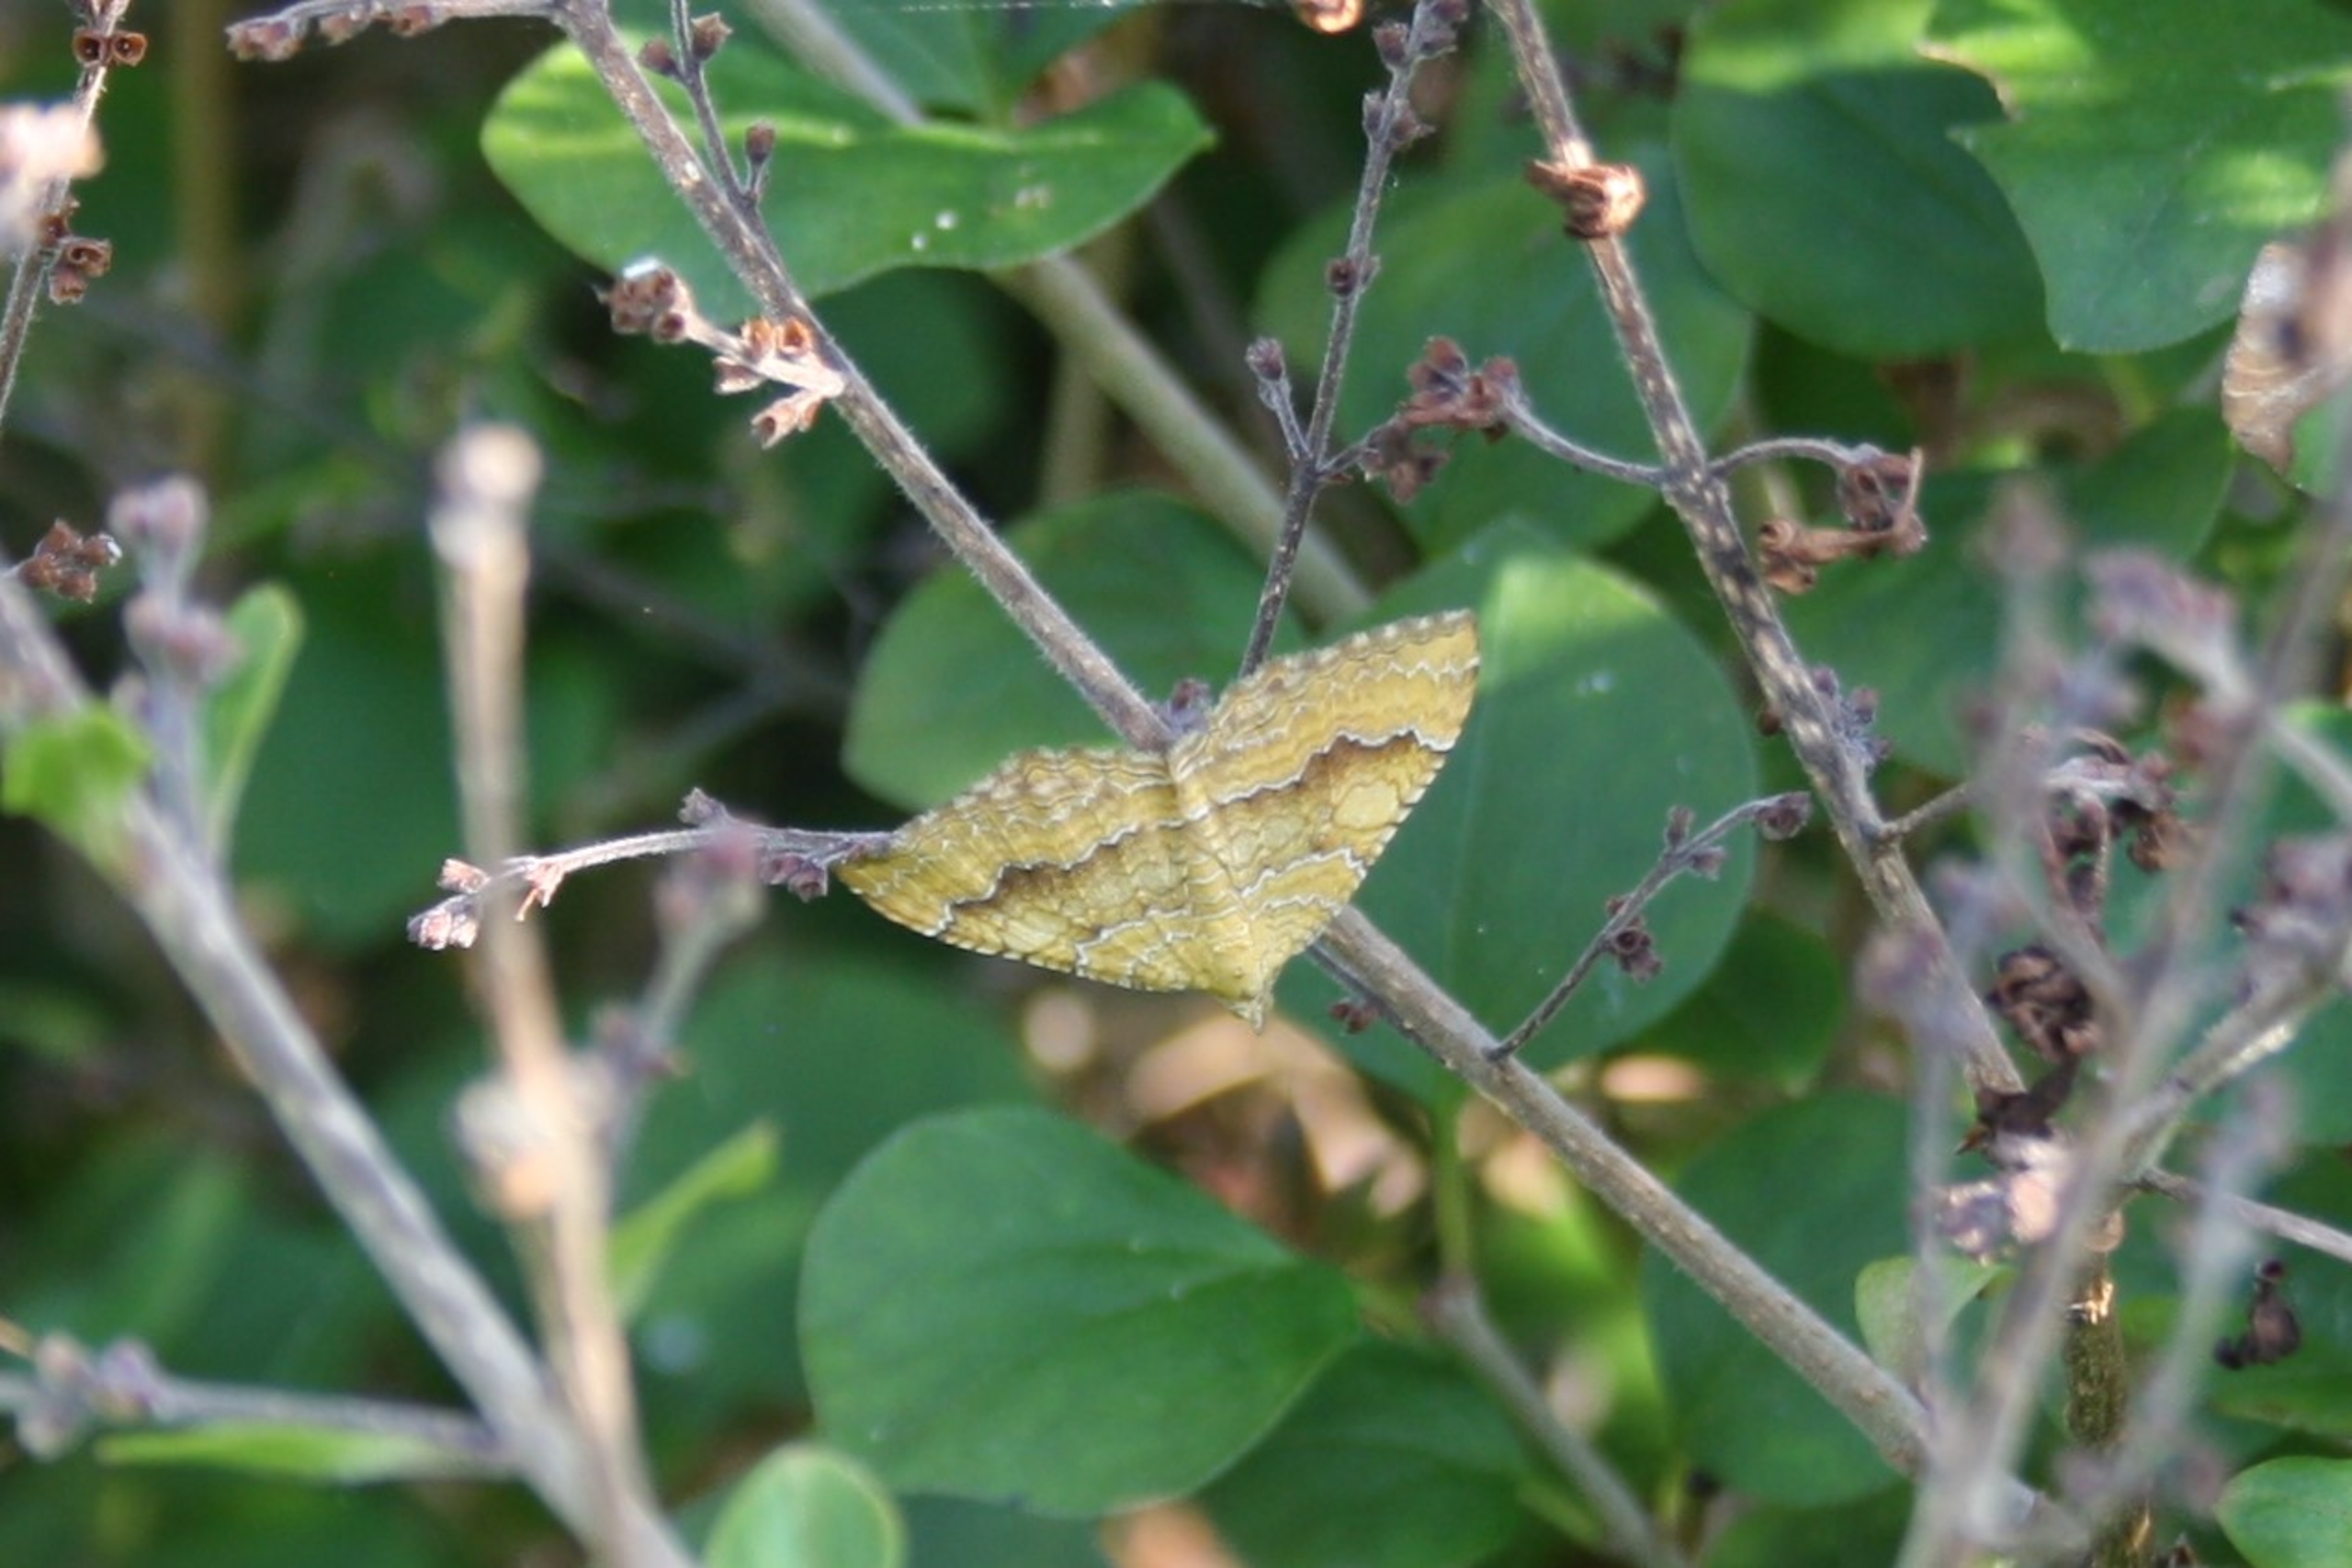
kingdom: Animalia
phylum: Arthropoda
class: Insecta
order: Lepidoptera
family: Geometridae
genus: Camptogramma
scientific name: Camptogramma bilineata
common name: Okkergul bladmåler
